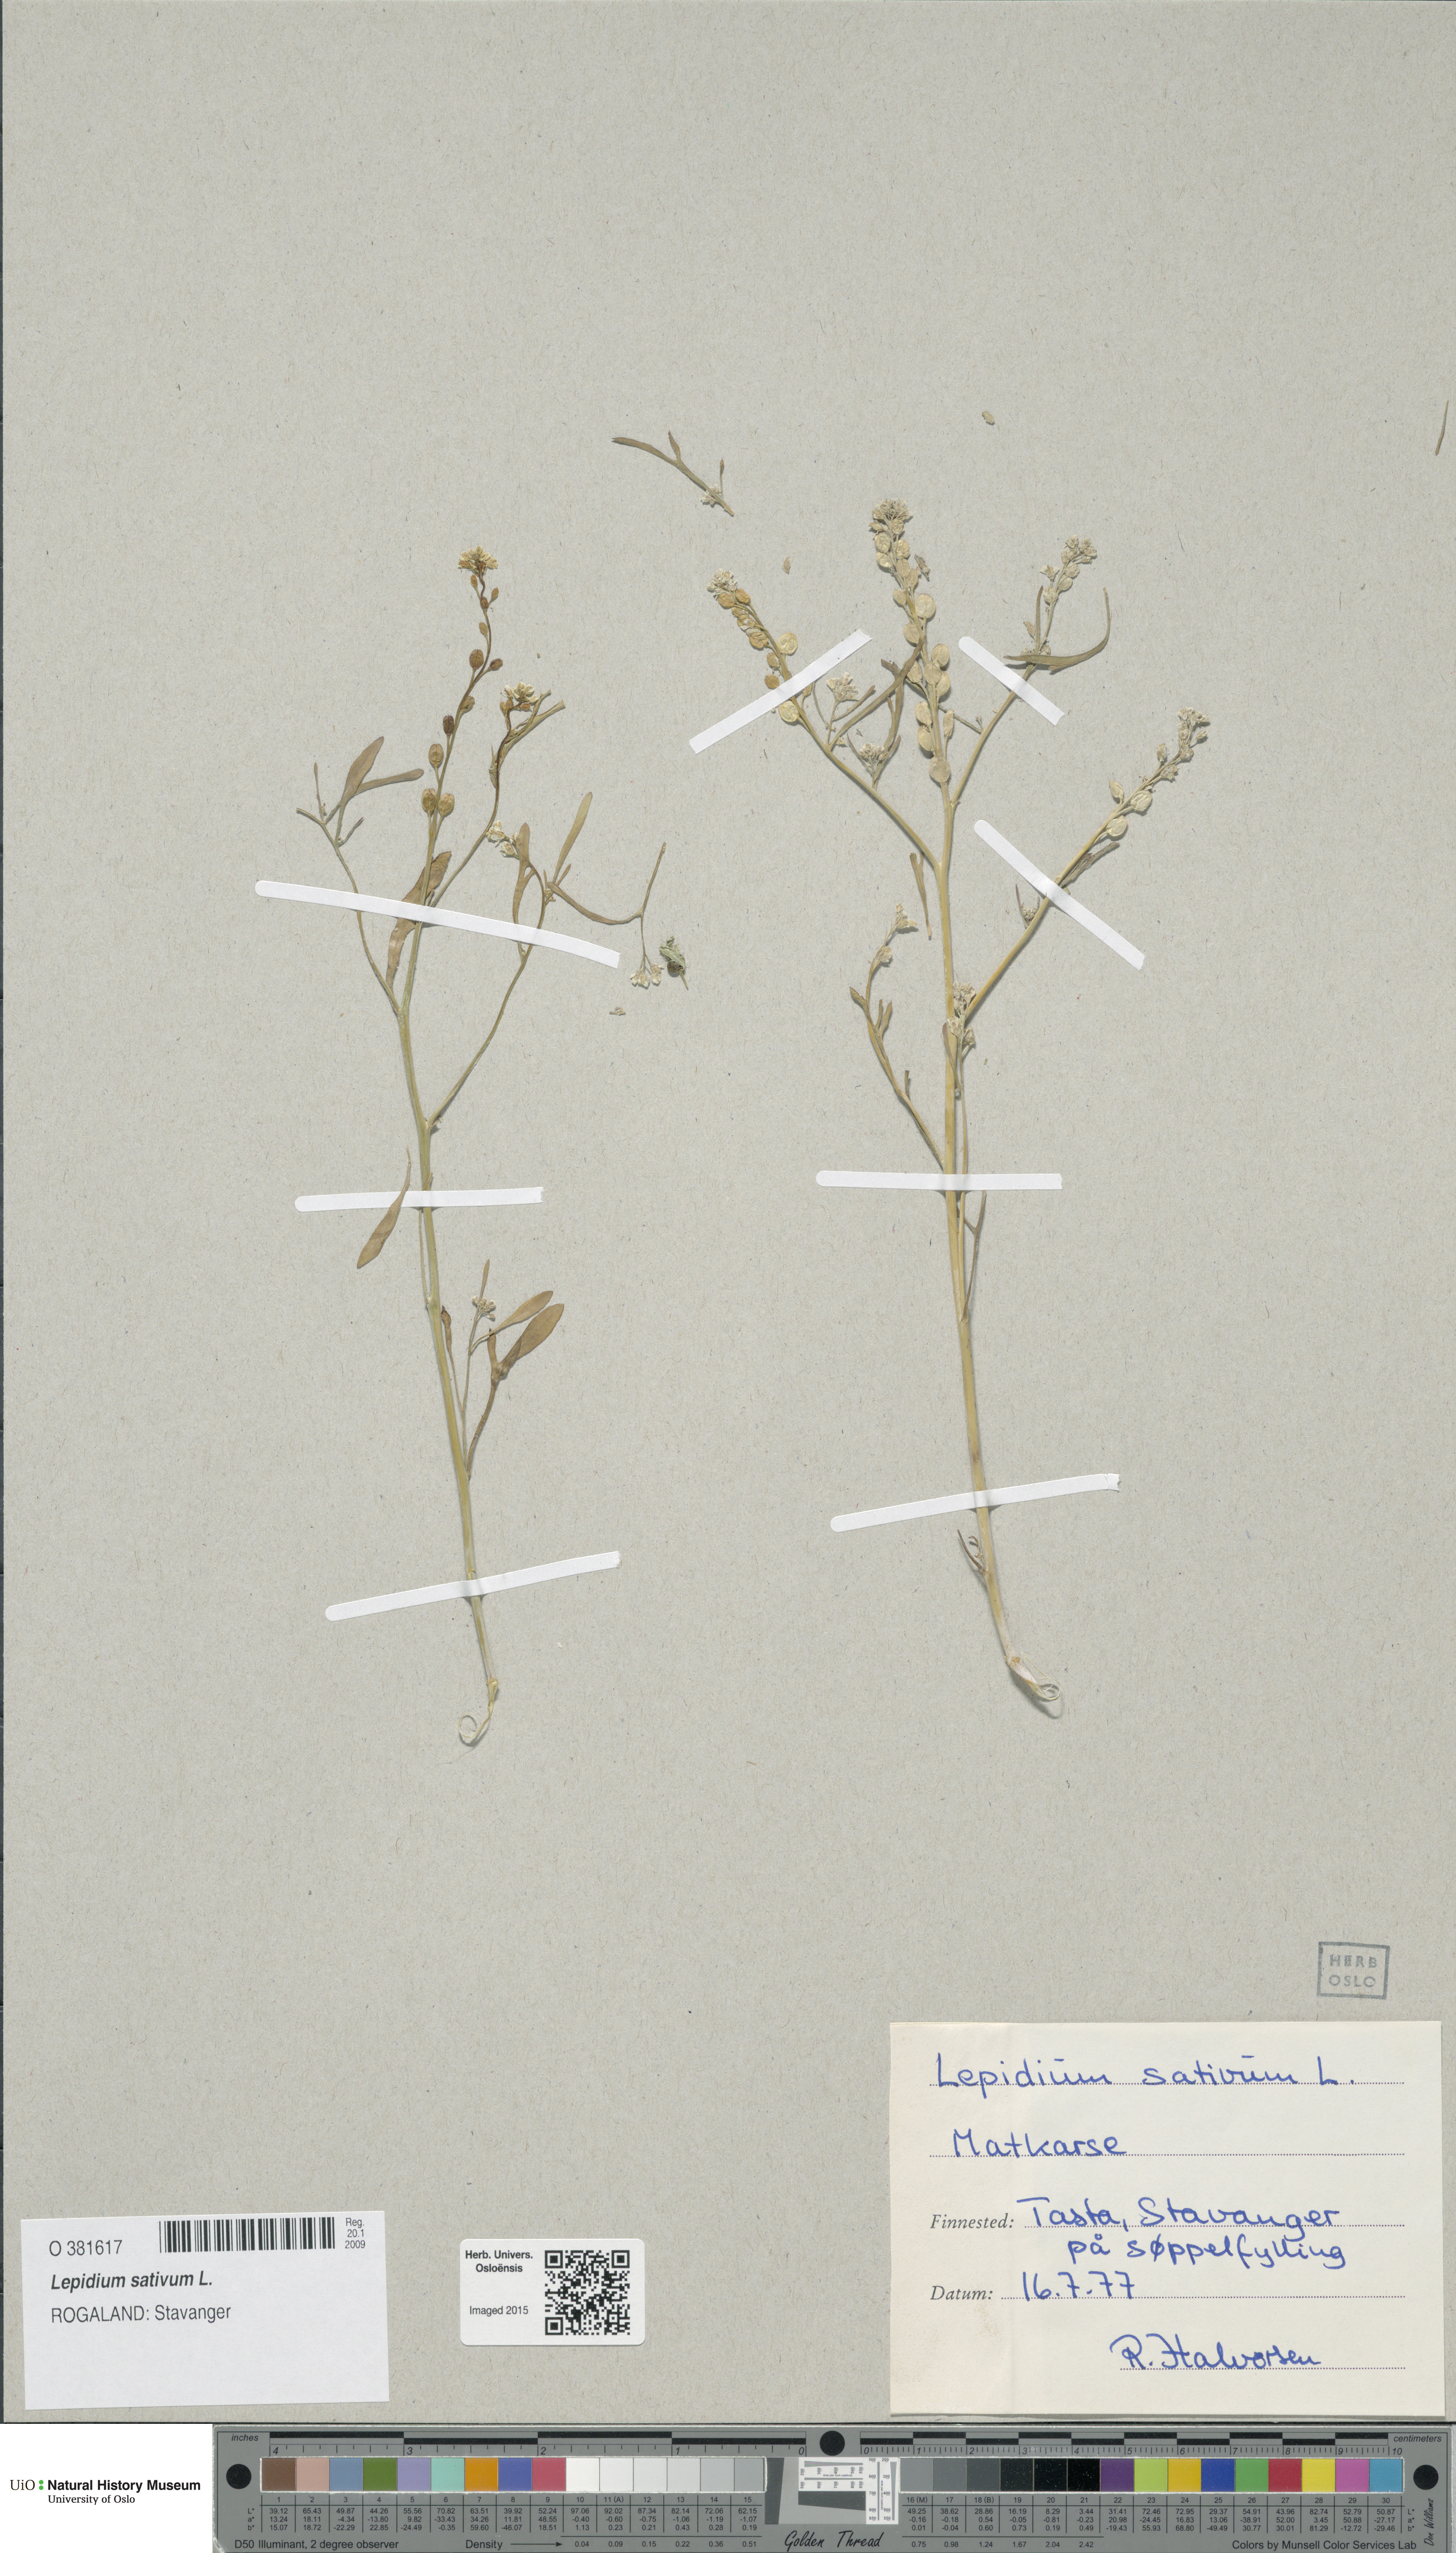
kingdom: Plantae
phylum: Tracheophyta
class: Magnoliopsida
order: Brassicales
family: Brassicaceae
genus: Lepidium
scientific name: Lepidium sativum
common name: Garden cress
